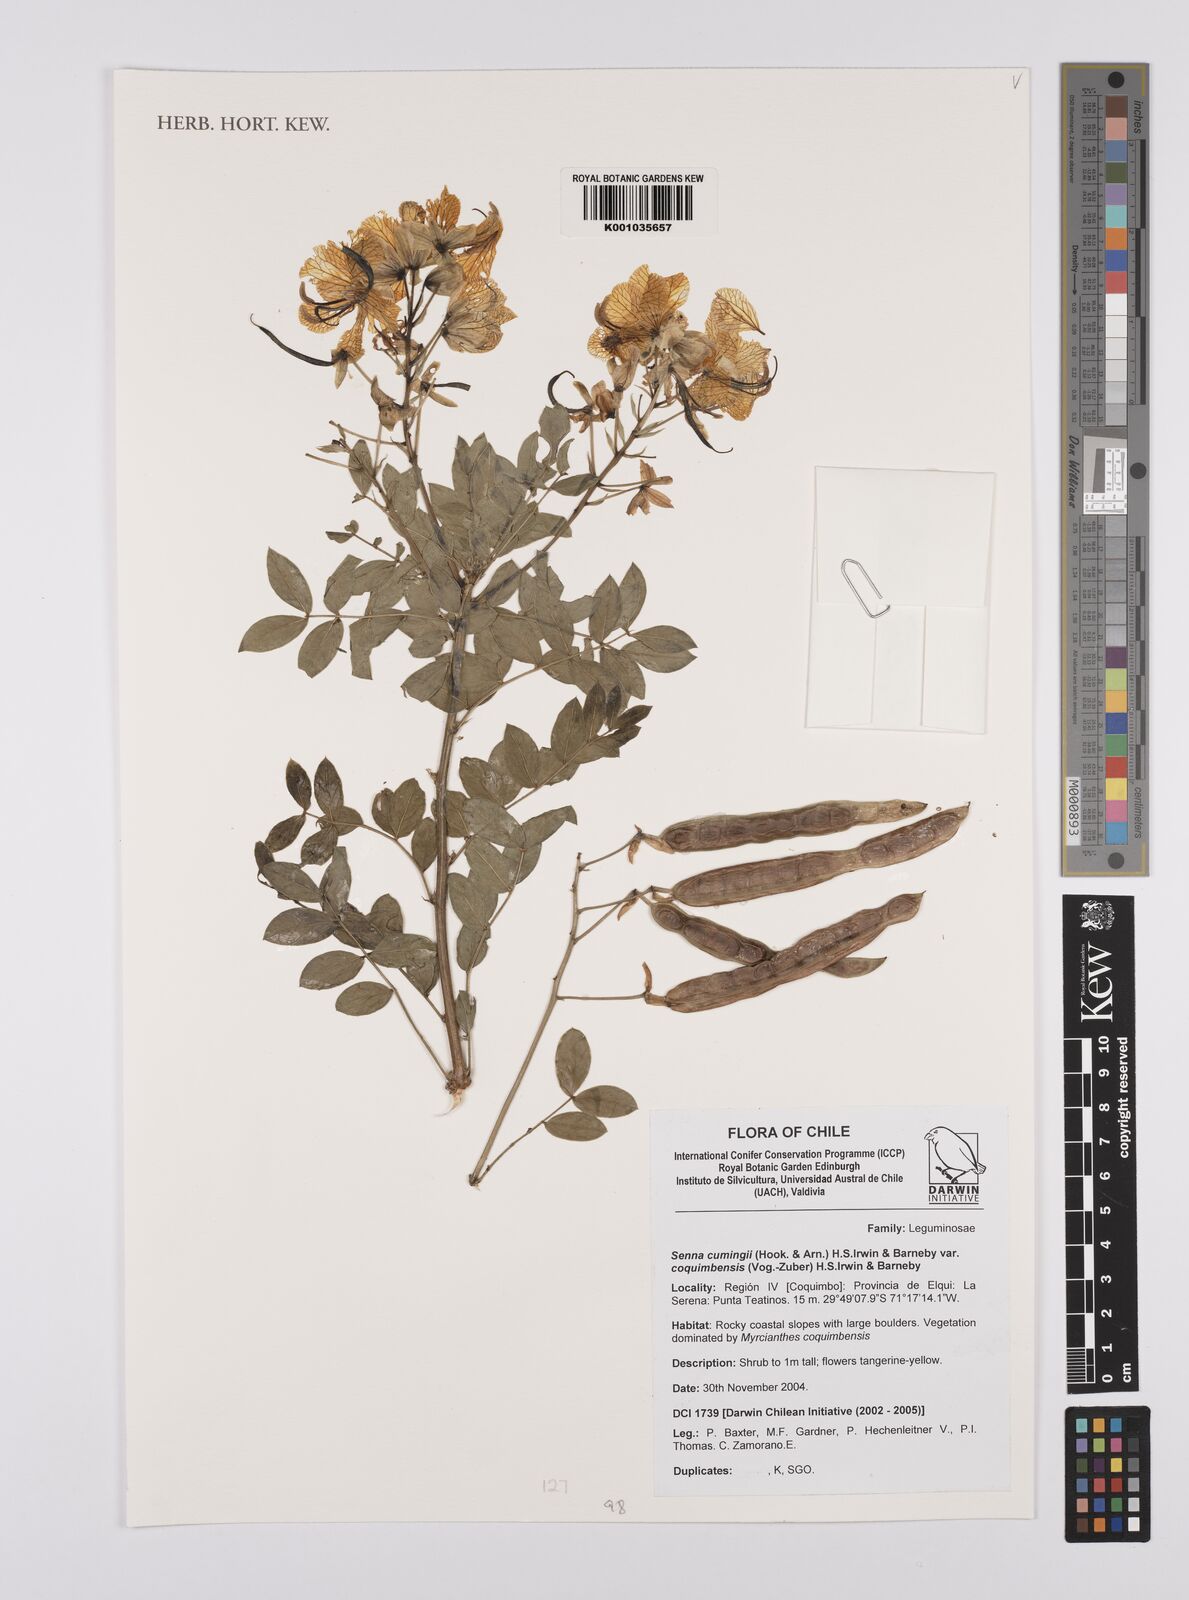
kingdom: Plantae
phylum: Tracheophyta
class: Magnoliopsida
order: Fabales
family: Fabaceae
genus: Senna
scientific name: Senna cumingii
